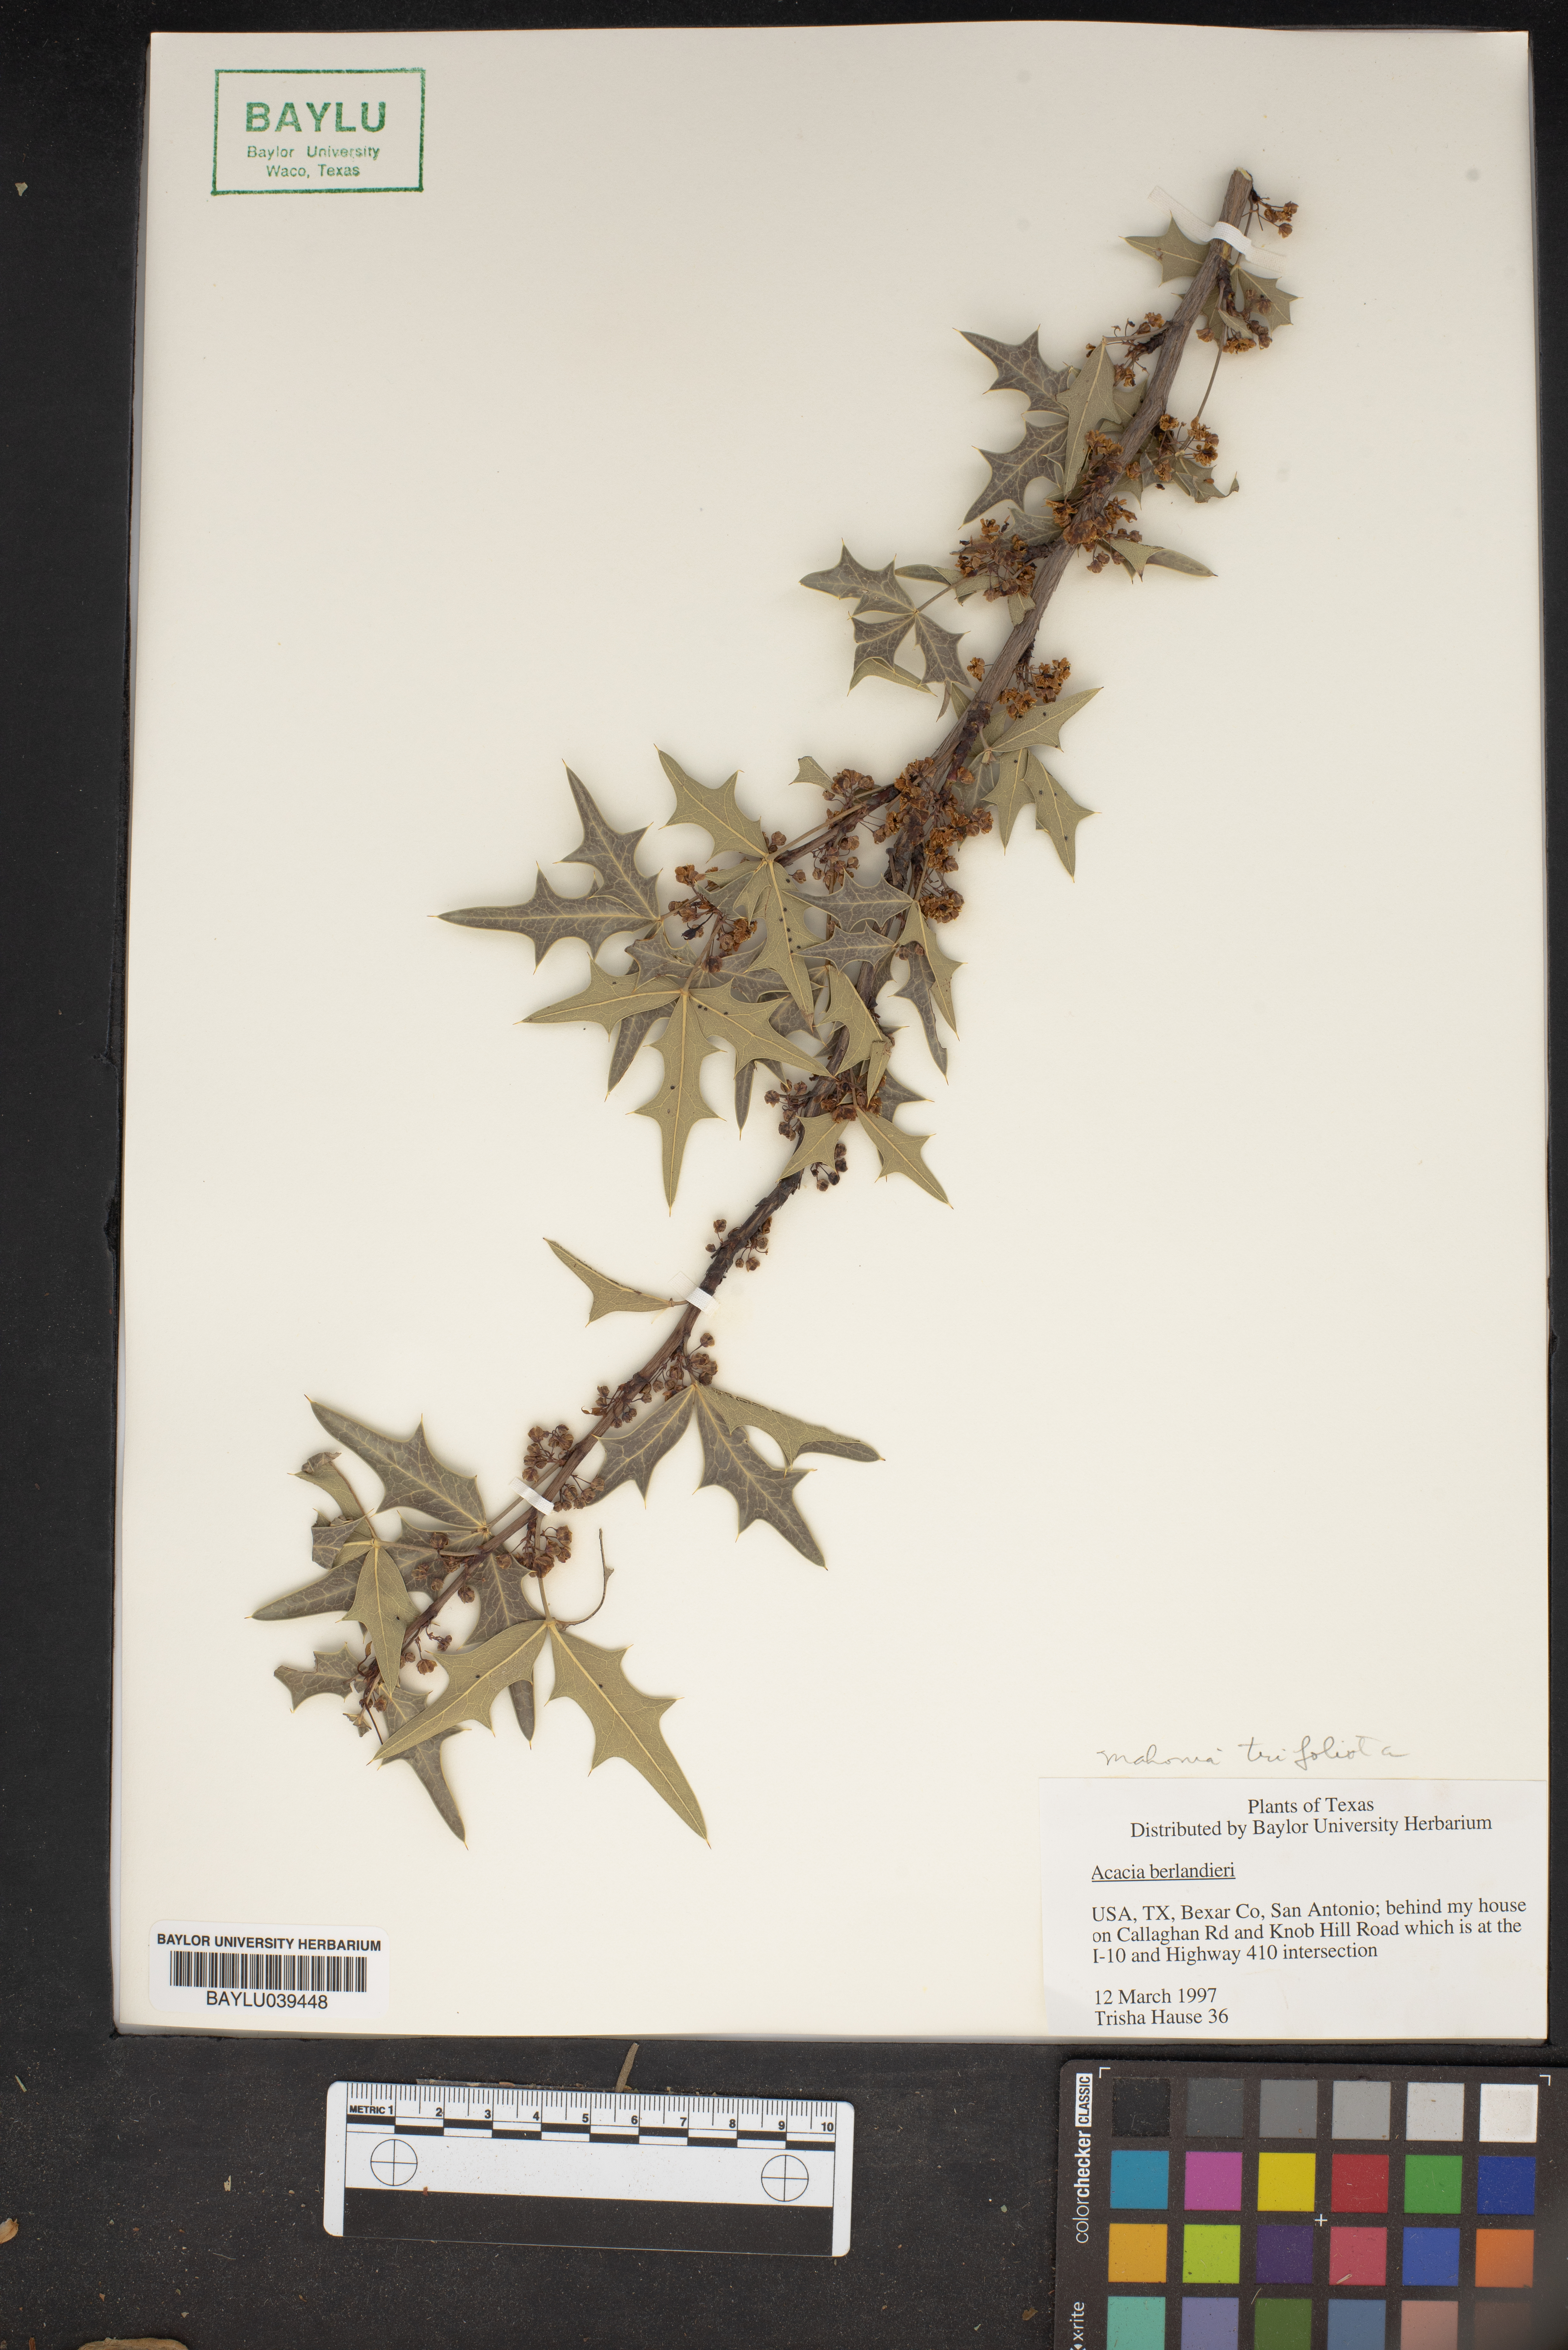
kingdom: Plantae
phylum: Tracheophyta
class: Magnoliopsida
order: Fabales
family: Fabaceae
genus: Senegalia
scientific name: Senegalia berlandieri
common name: Berlandier acacia
